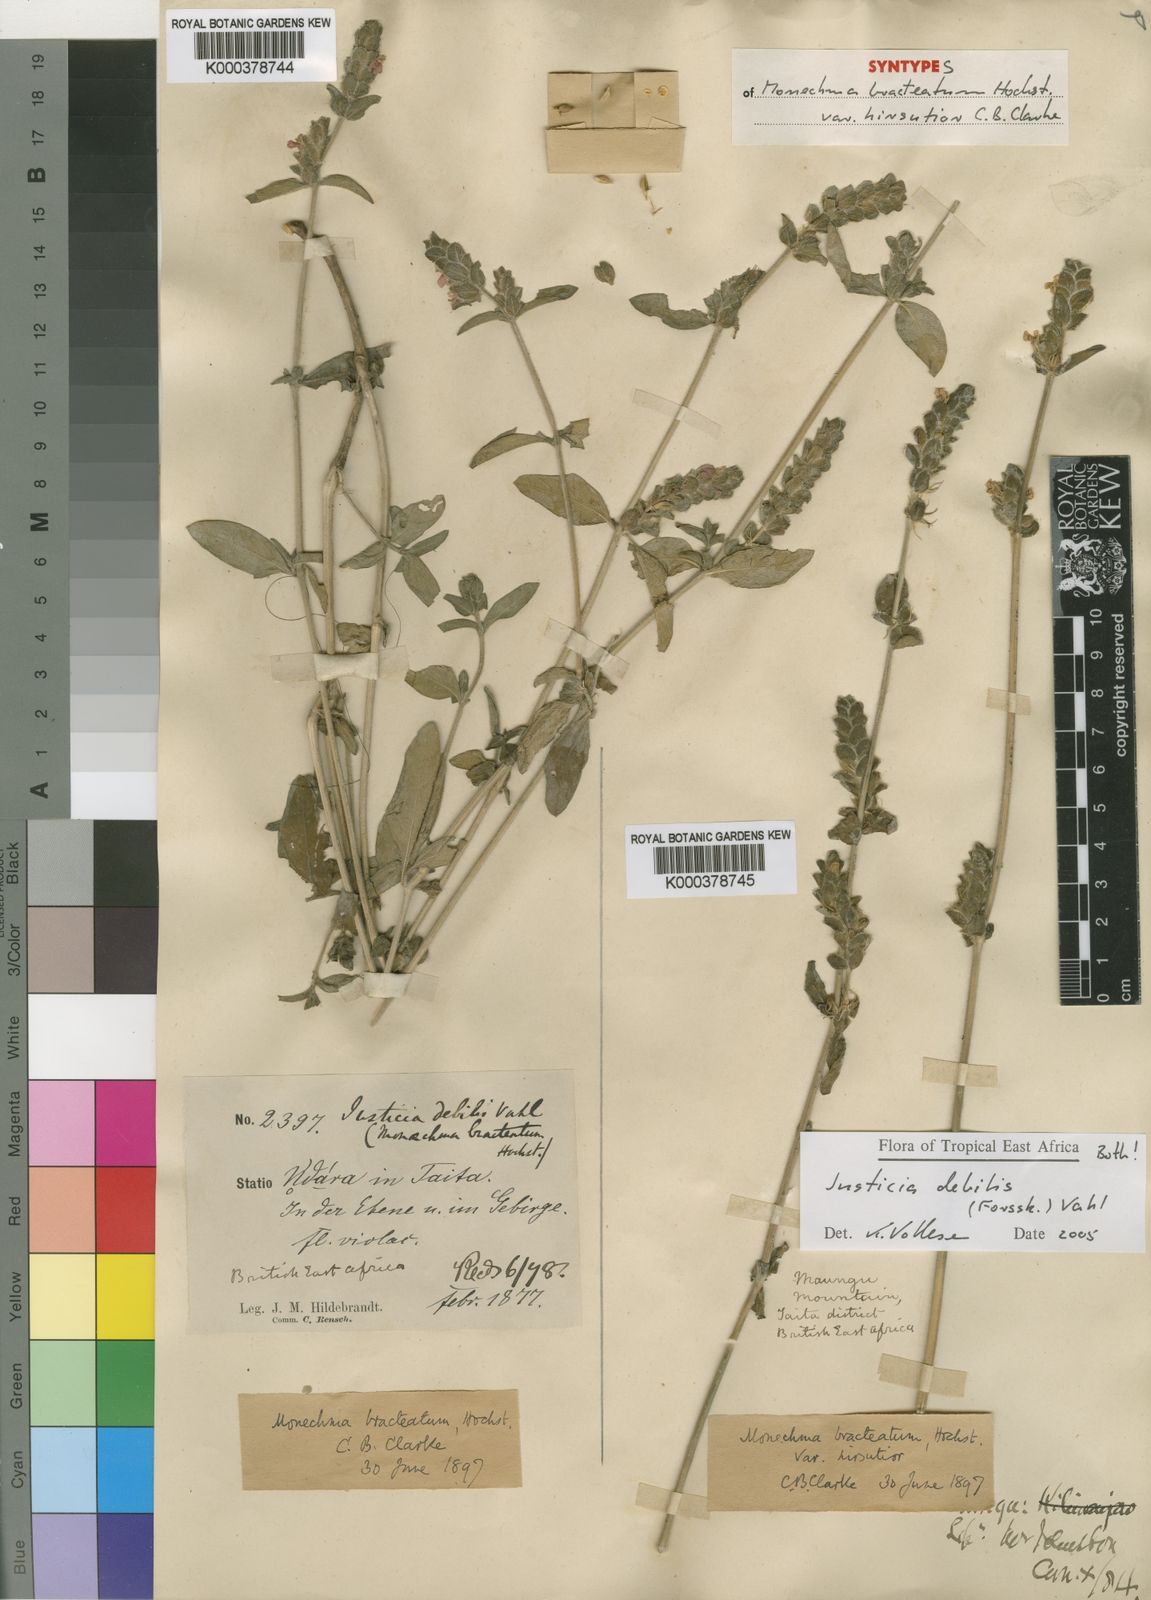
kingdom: Plantae
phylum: Tracheophyta
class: Magnoliopsida
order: Lamiales
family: Acanthaceae
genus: Monechma
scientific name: Monechma debile
